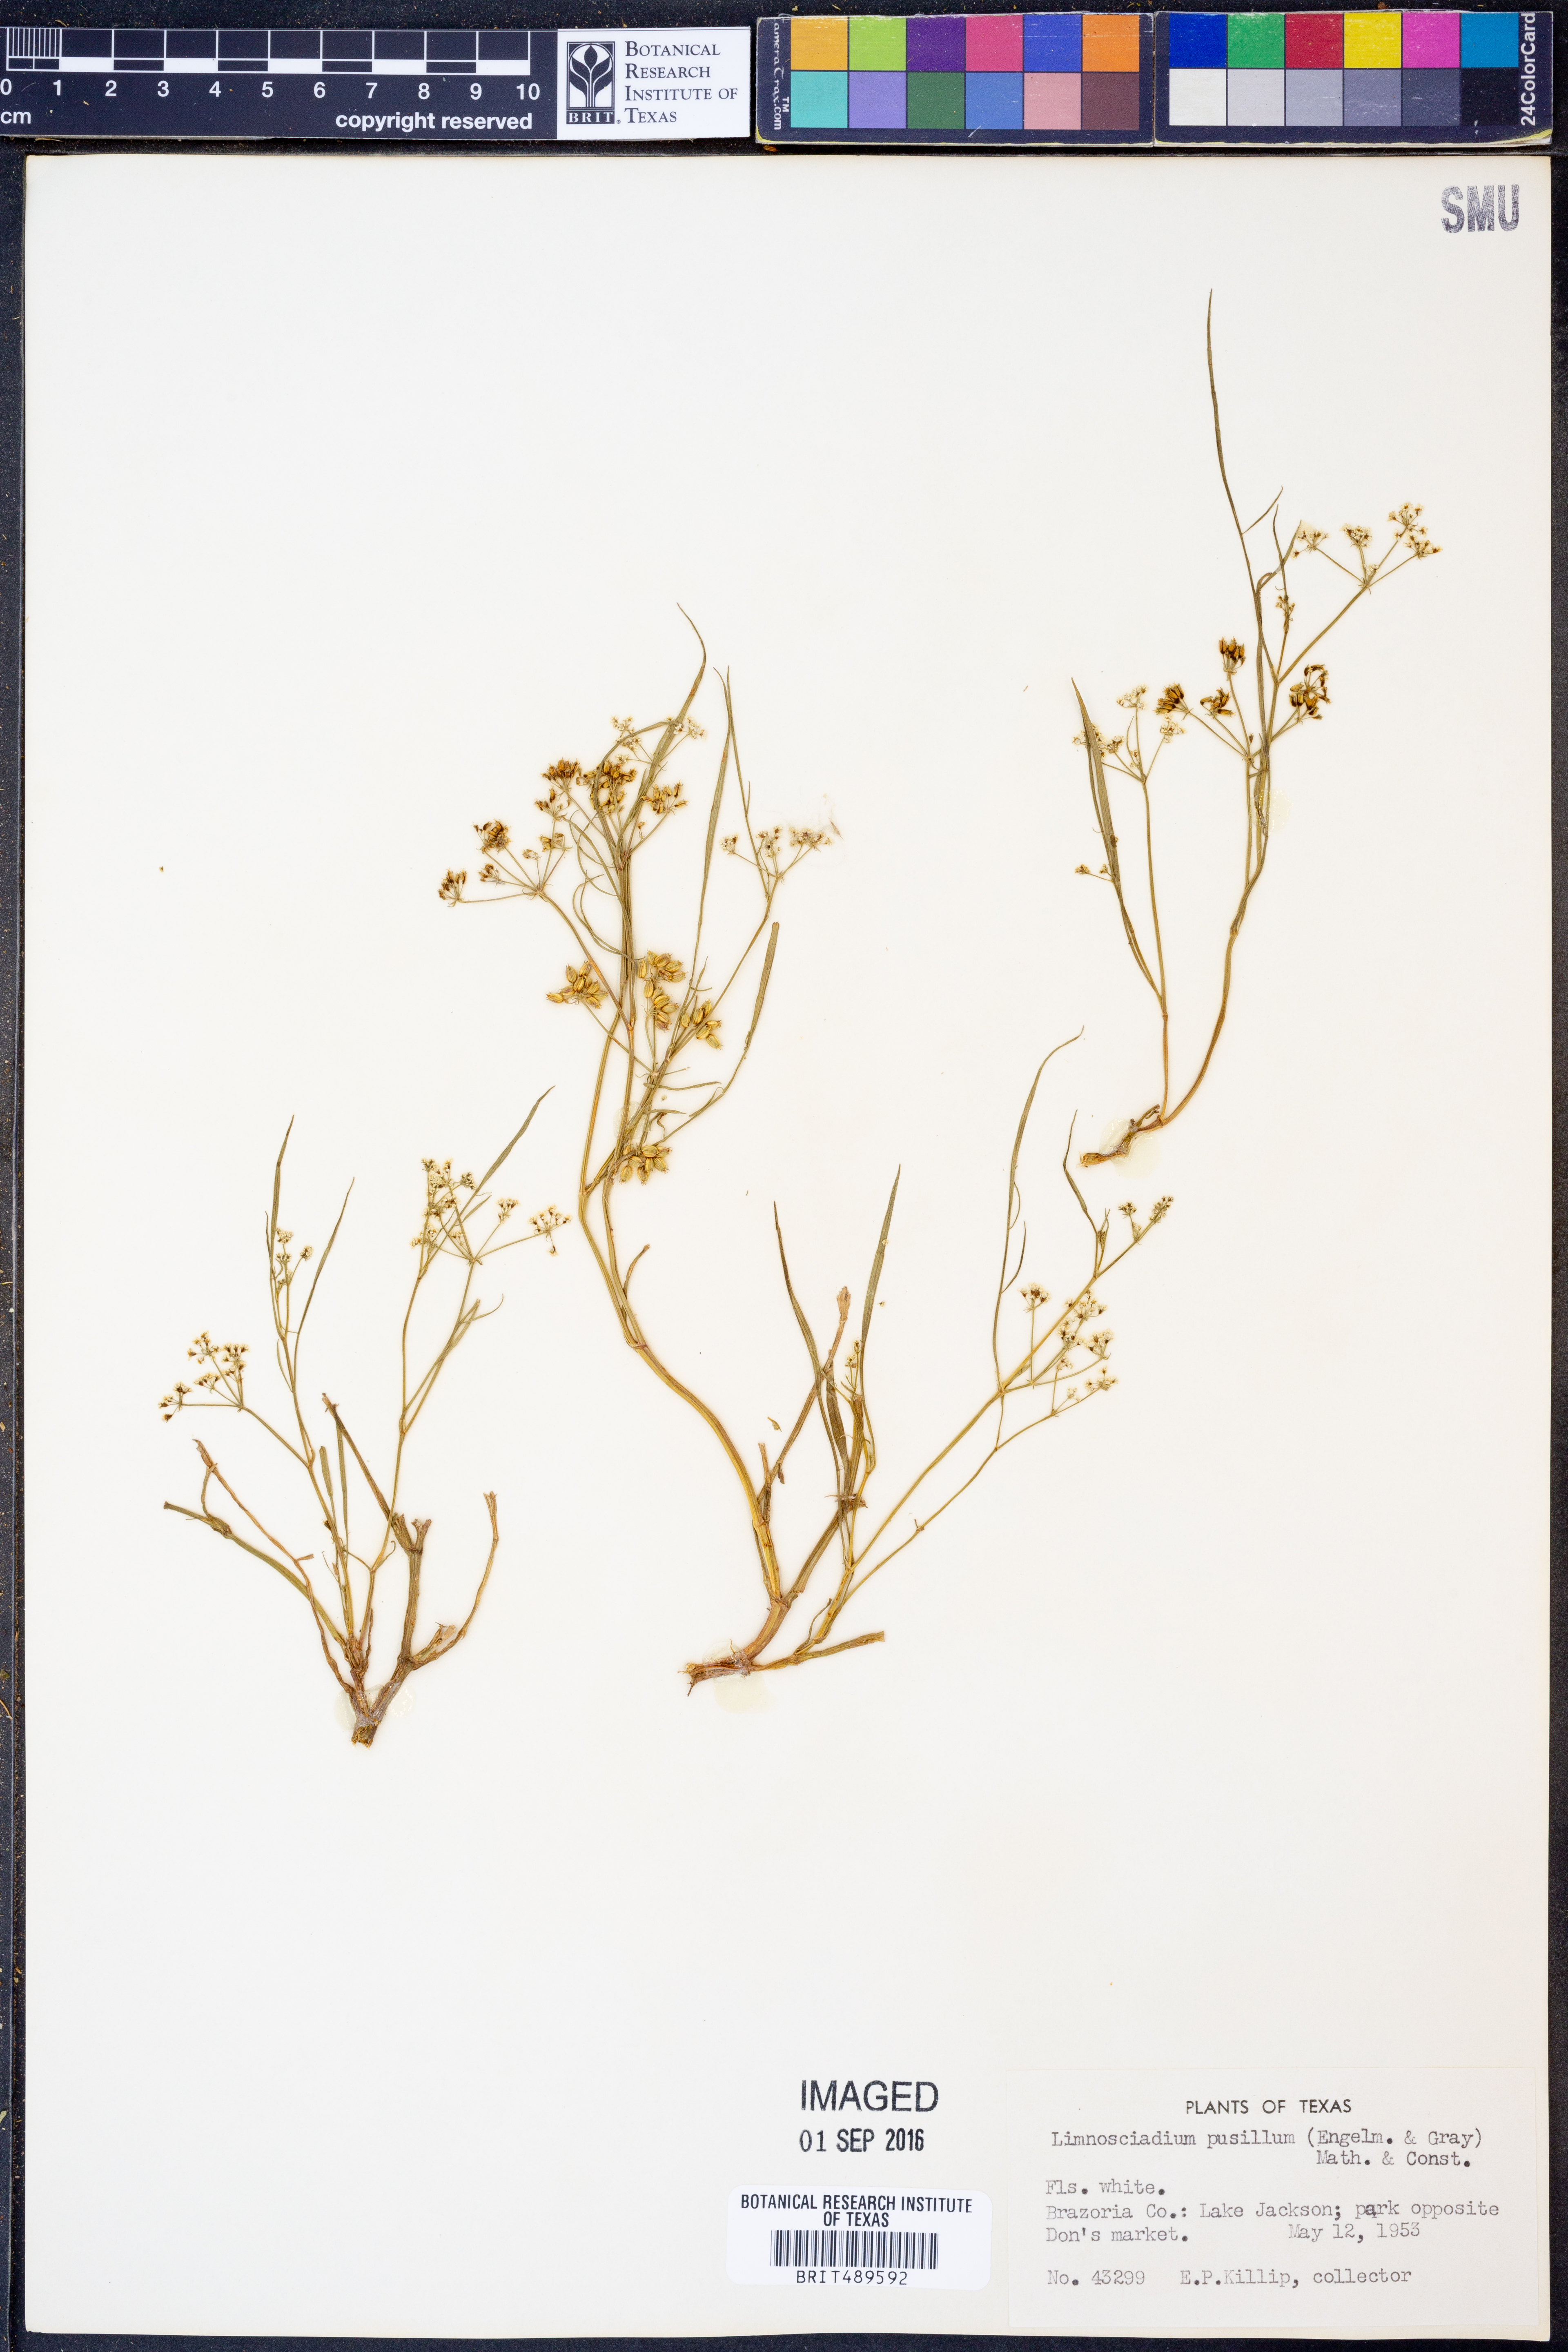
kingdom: Plantae
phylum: Tracheophyta
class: Magnoliopsida
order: Apiales
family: Apiaceae
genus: Limnosciadium
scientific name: Limnosciadium pinnatum
